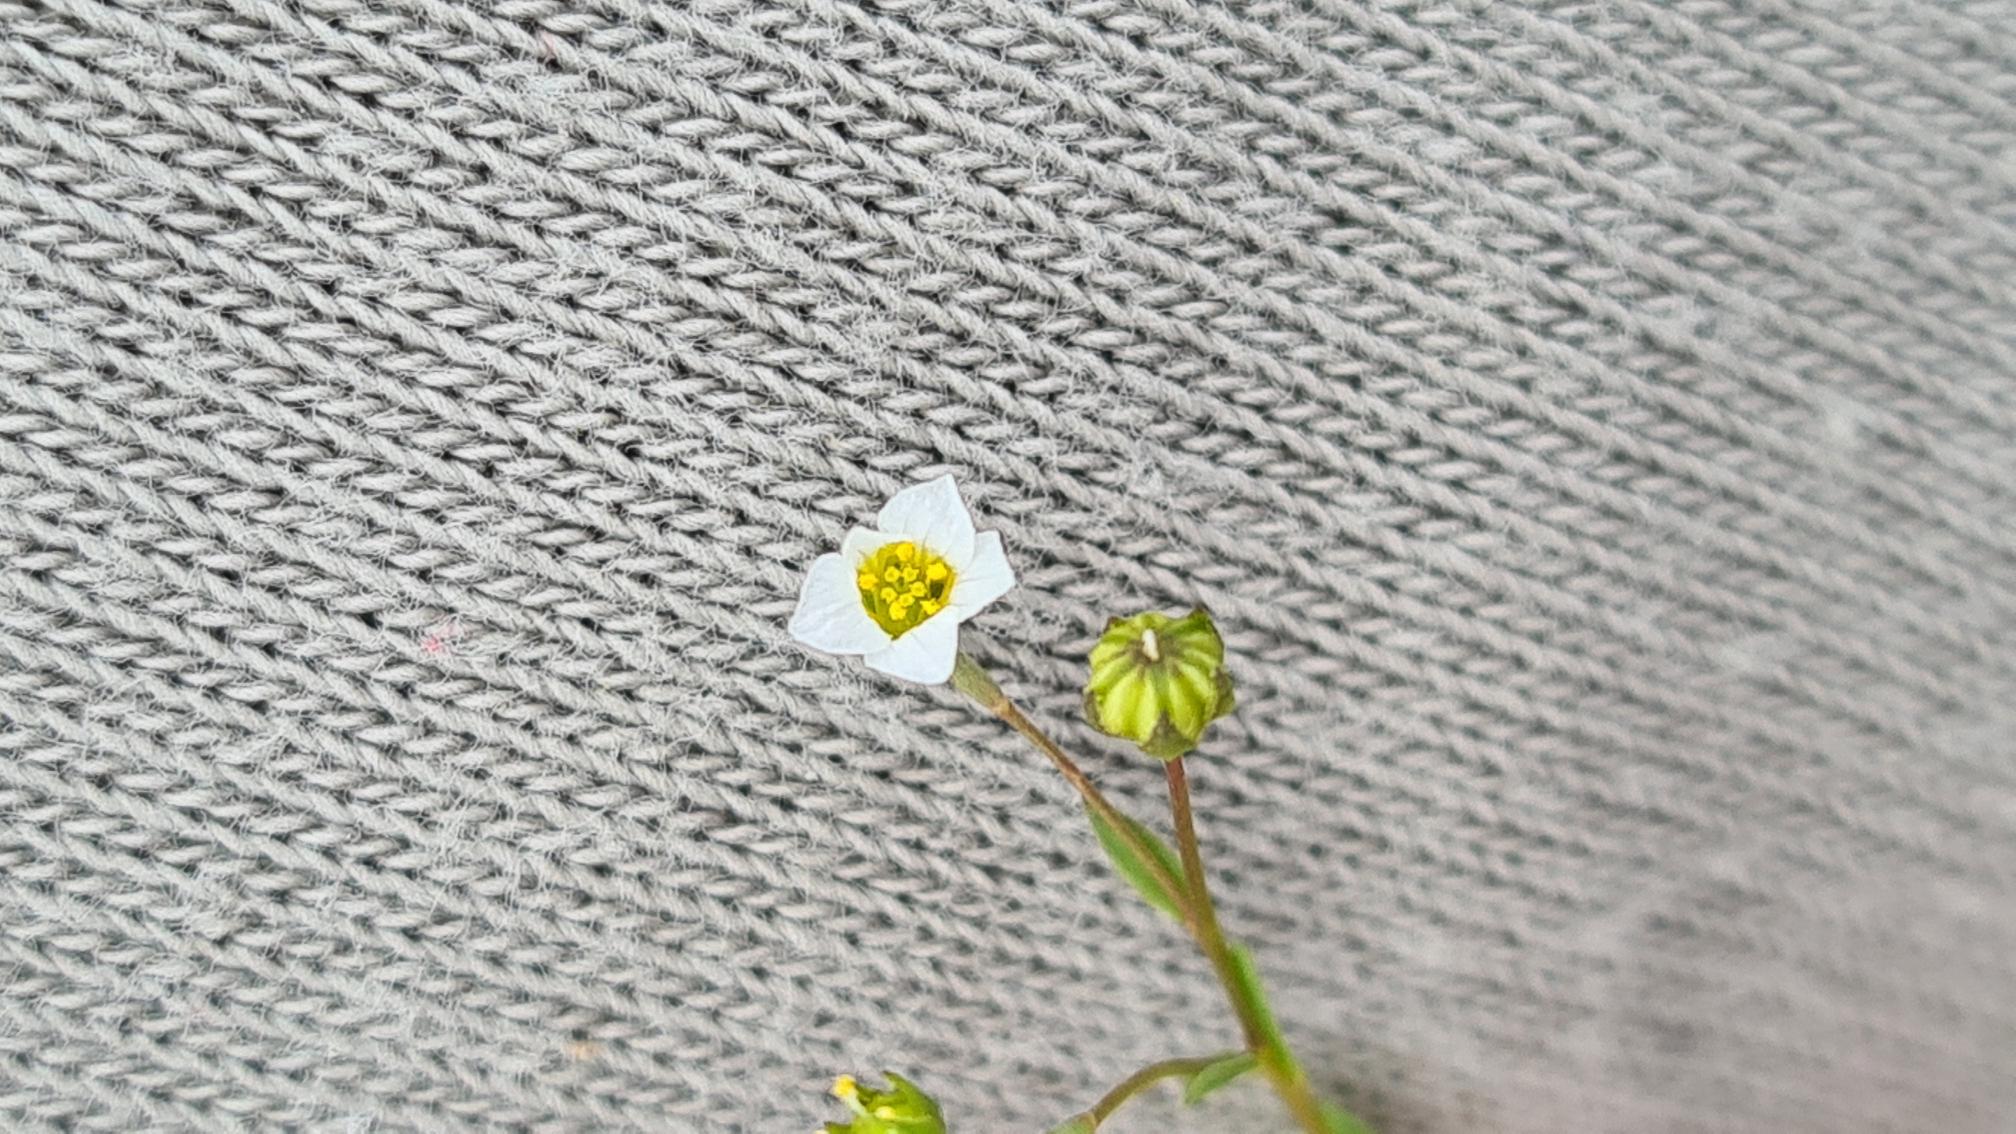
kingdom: Plantae
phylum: Tracheophyta
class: Magnoliopsida
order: Malpighiales
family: Linaceae
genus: Linum
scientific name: Linum catharticum
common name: Vild hør
